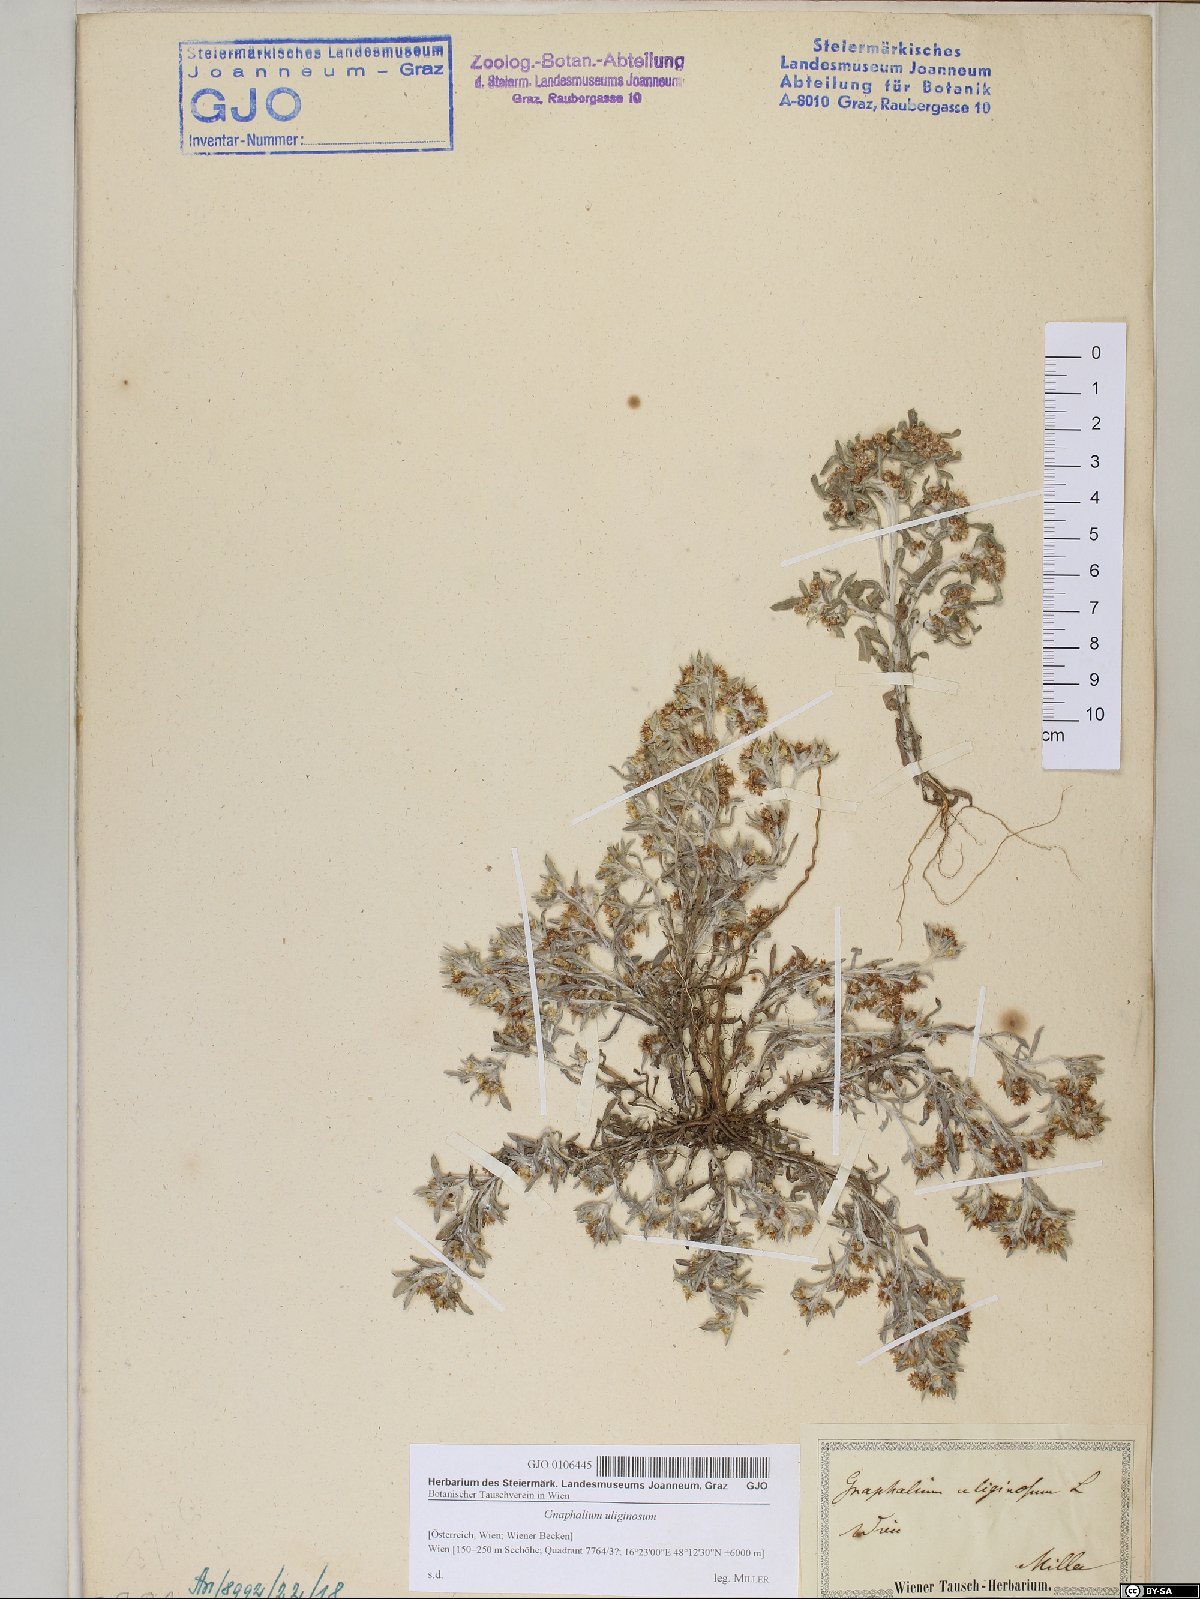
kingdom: Plantae
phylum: Tracheophyta
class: Magnoliopsida
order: Asterales
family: Asteraceae
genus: Gnaphalium
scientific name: Gnaphalium uliginosum
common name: Marsh cudweed
